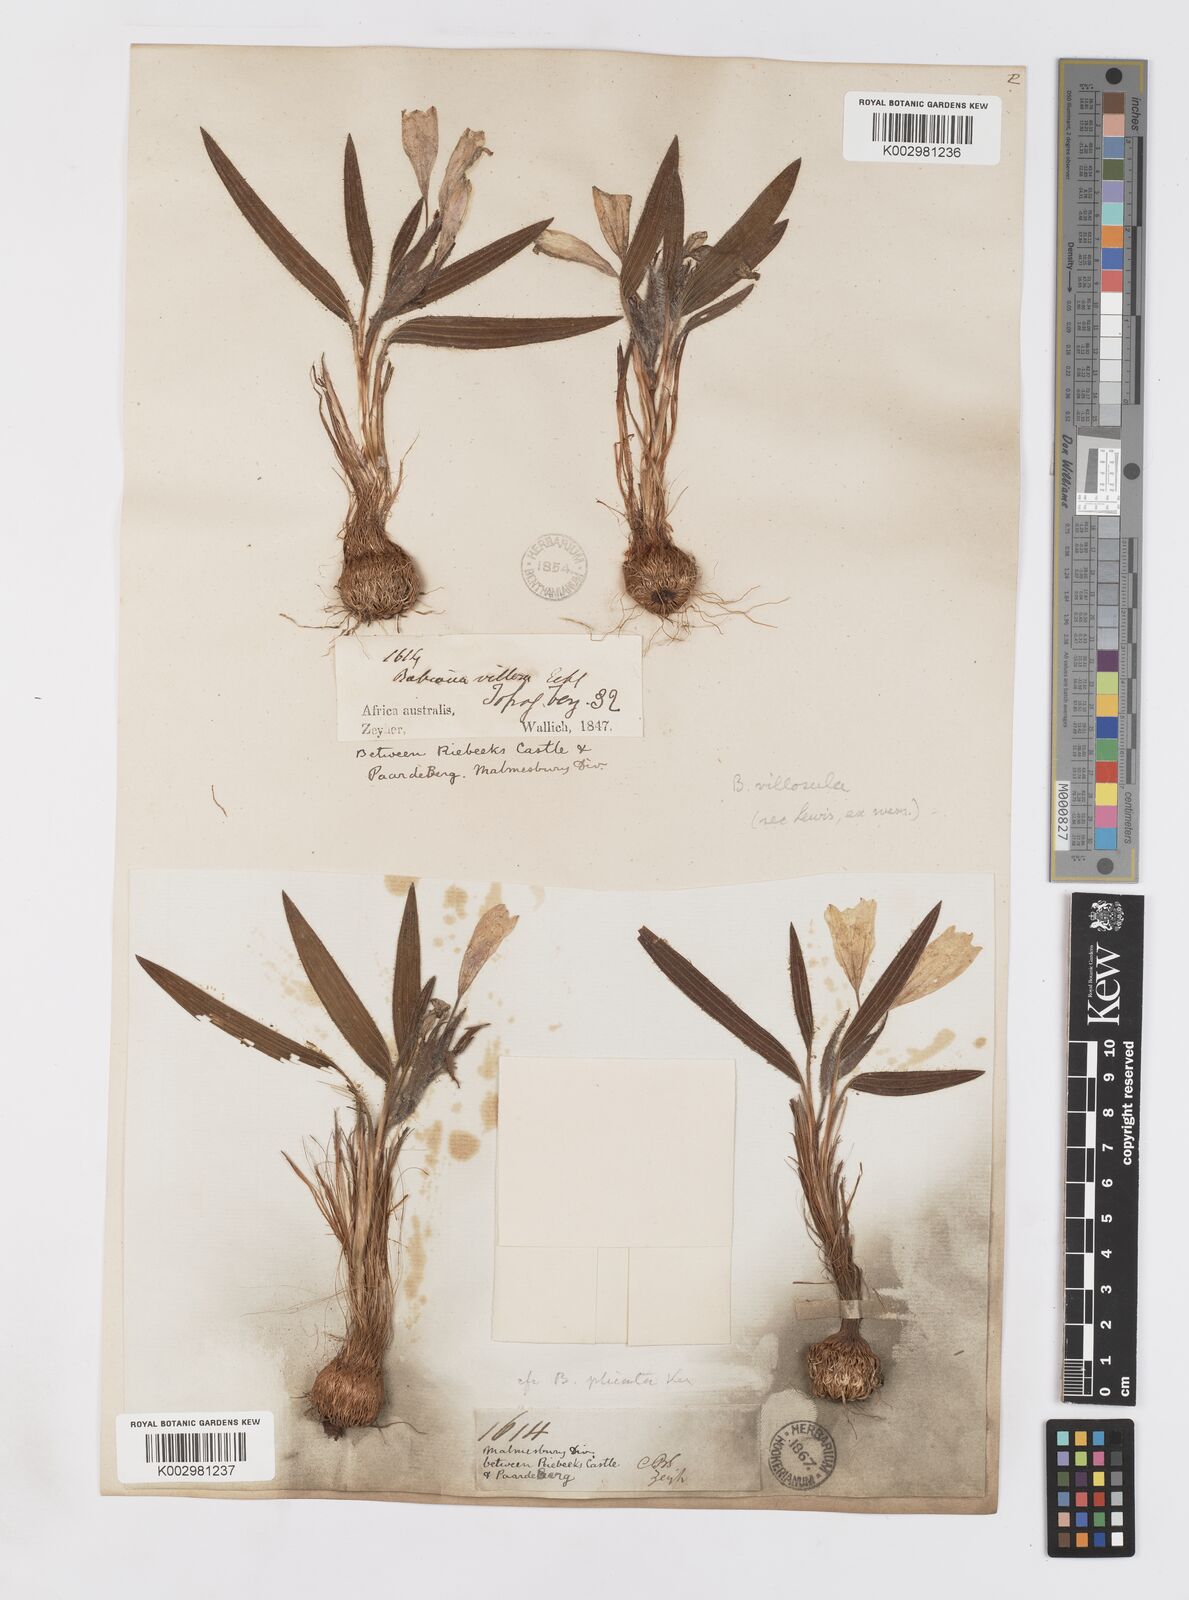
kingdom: Plantae
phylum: Tracheophyta
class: Liliopsida
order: Asparagales
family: Iridaceae
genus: Babiana
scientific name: Babiana villosula
